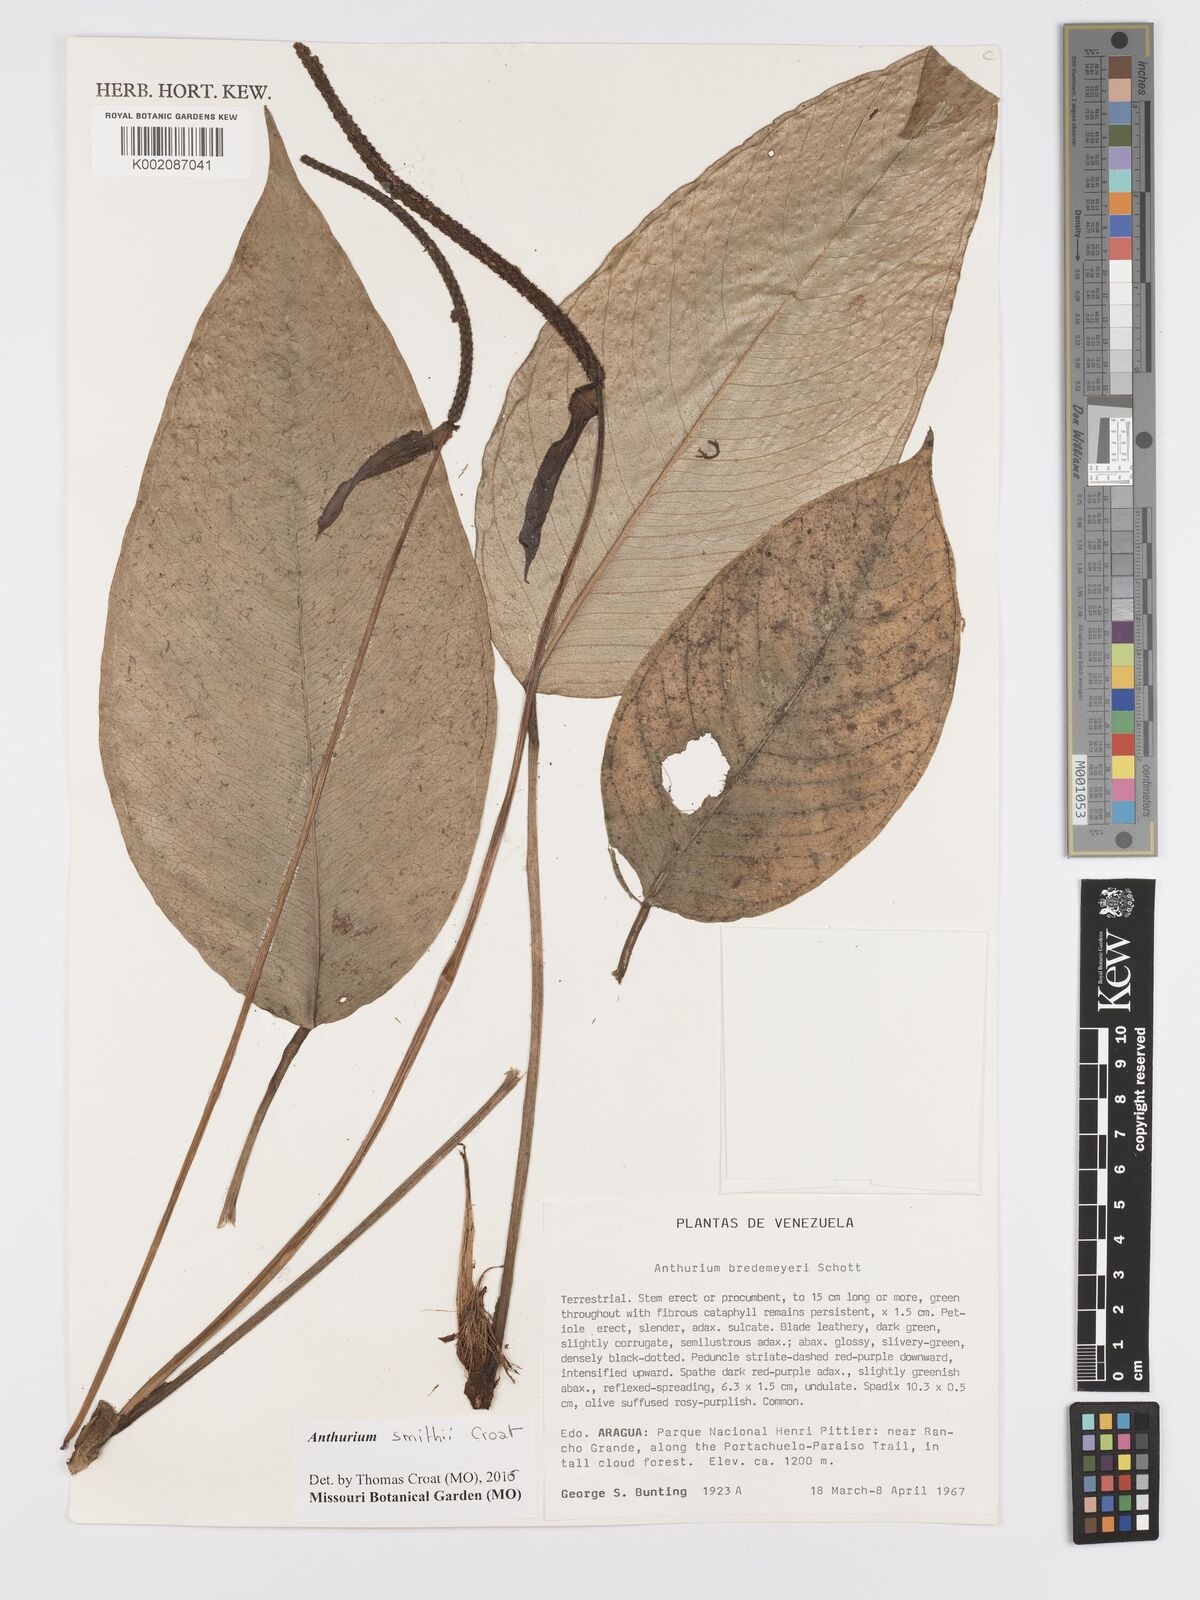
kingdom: Plantae
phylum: Tracheophyta
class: Liliopsida
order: Alismatales
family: Araceae
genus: Anthurium
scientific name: Anthurium smithii
